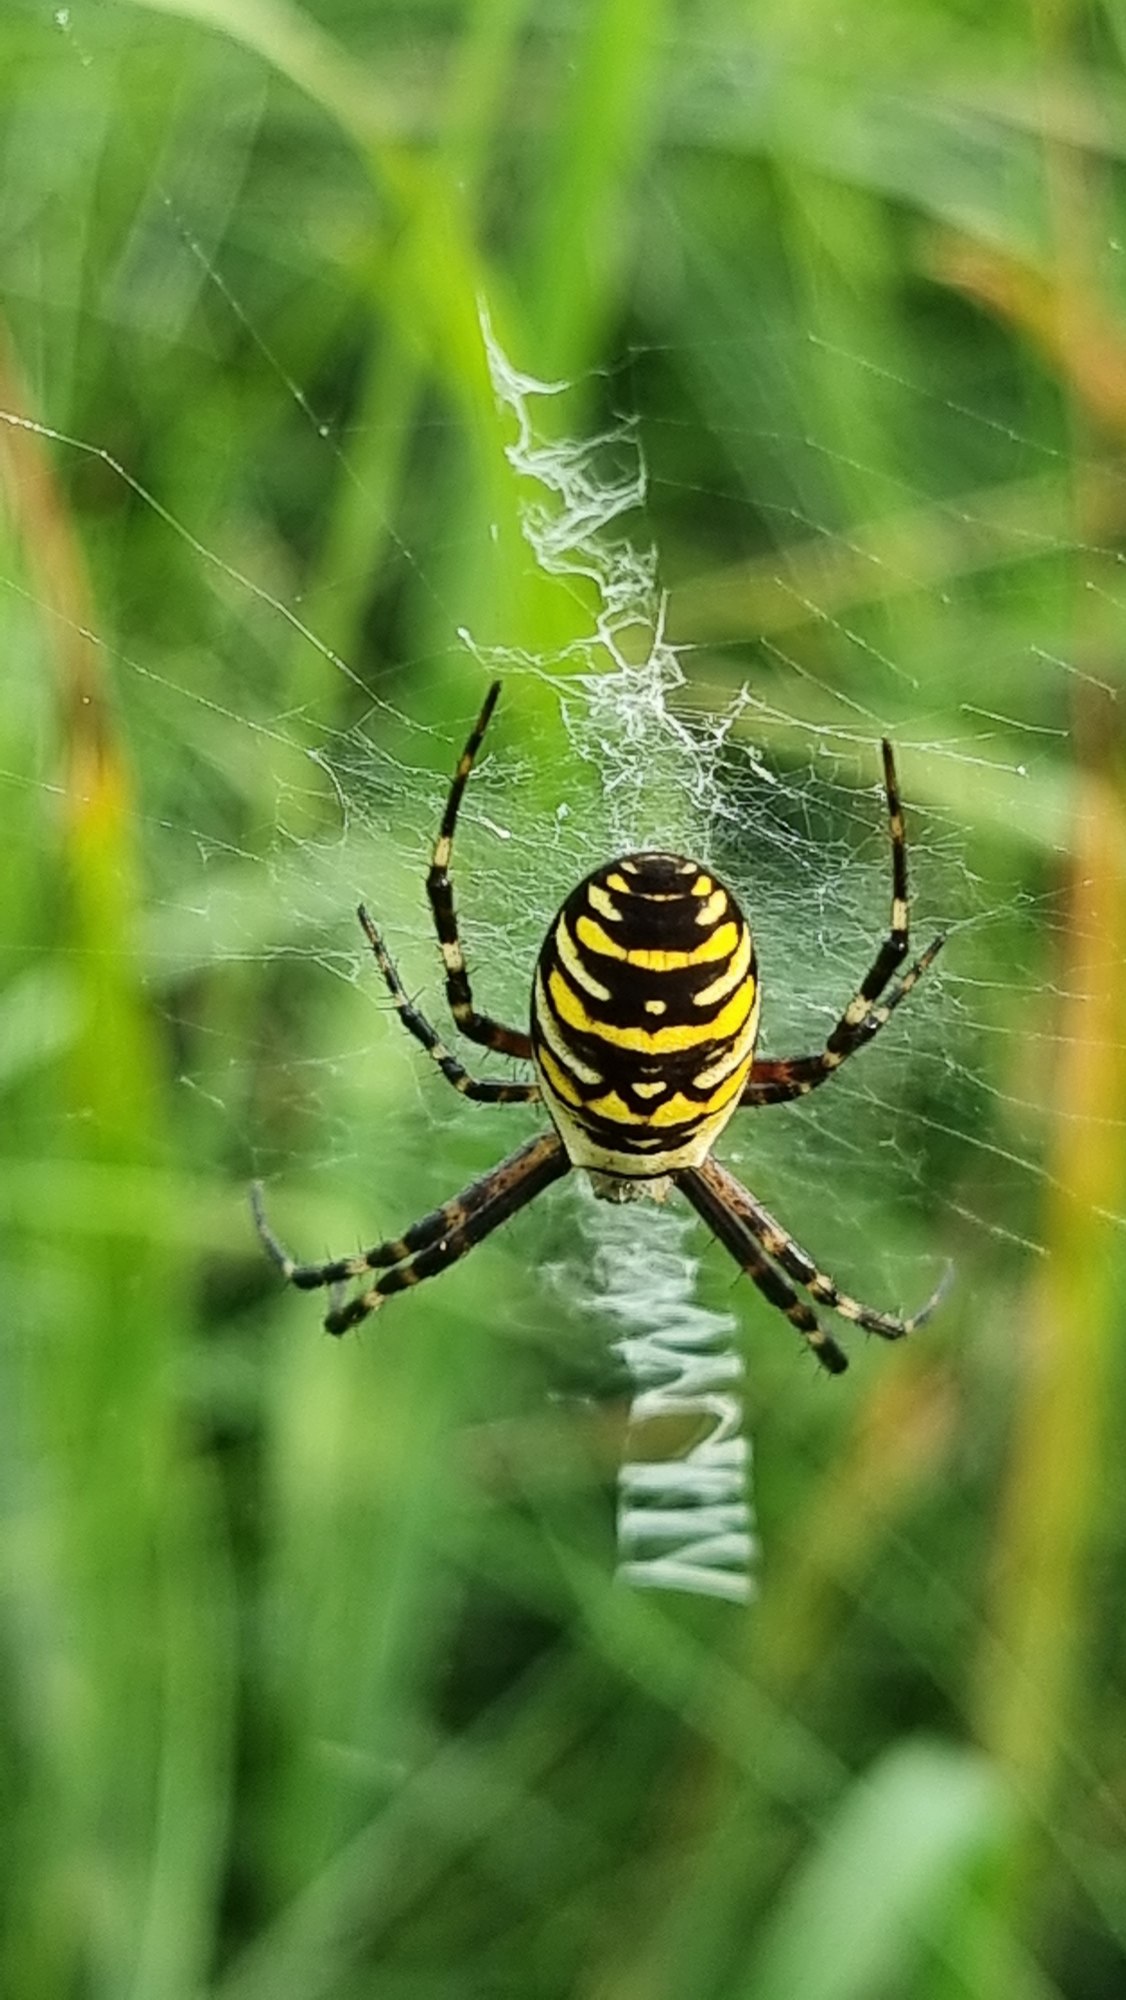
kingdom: Animalia
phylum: Arthropoda
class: Arachnida
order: Araneae
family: Araneidae
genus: Argiope
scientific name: Argiope bruennichi
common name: Hvepseedderkop
